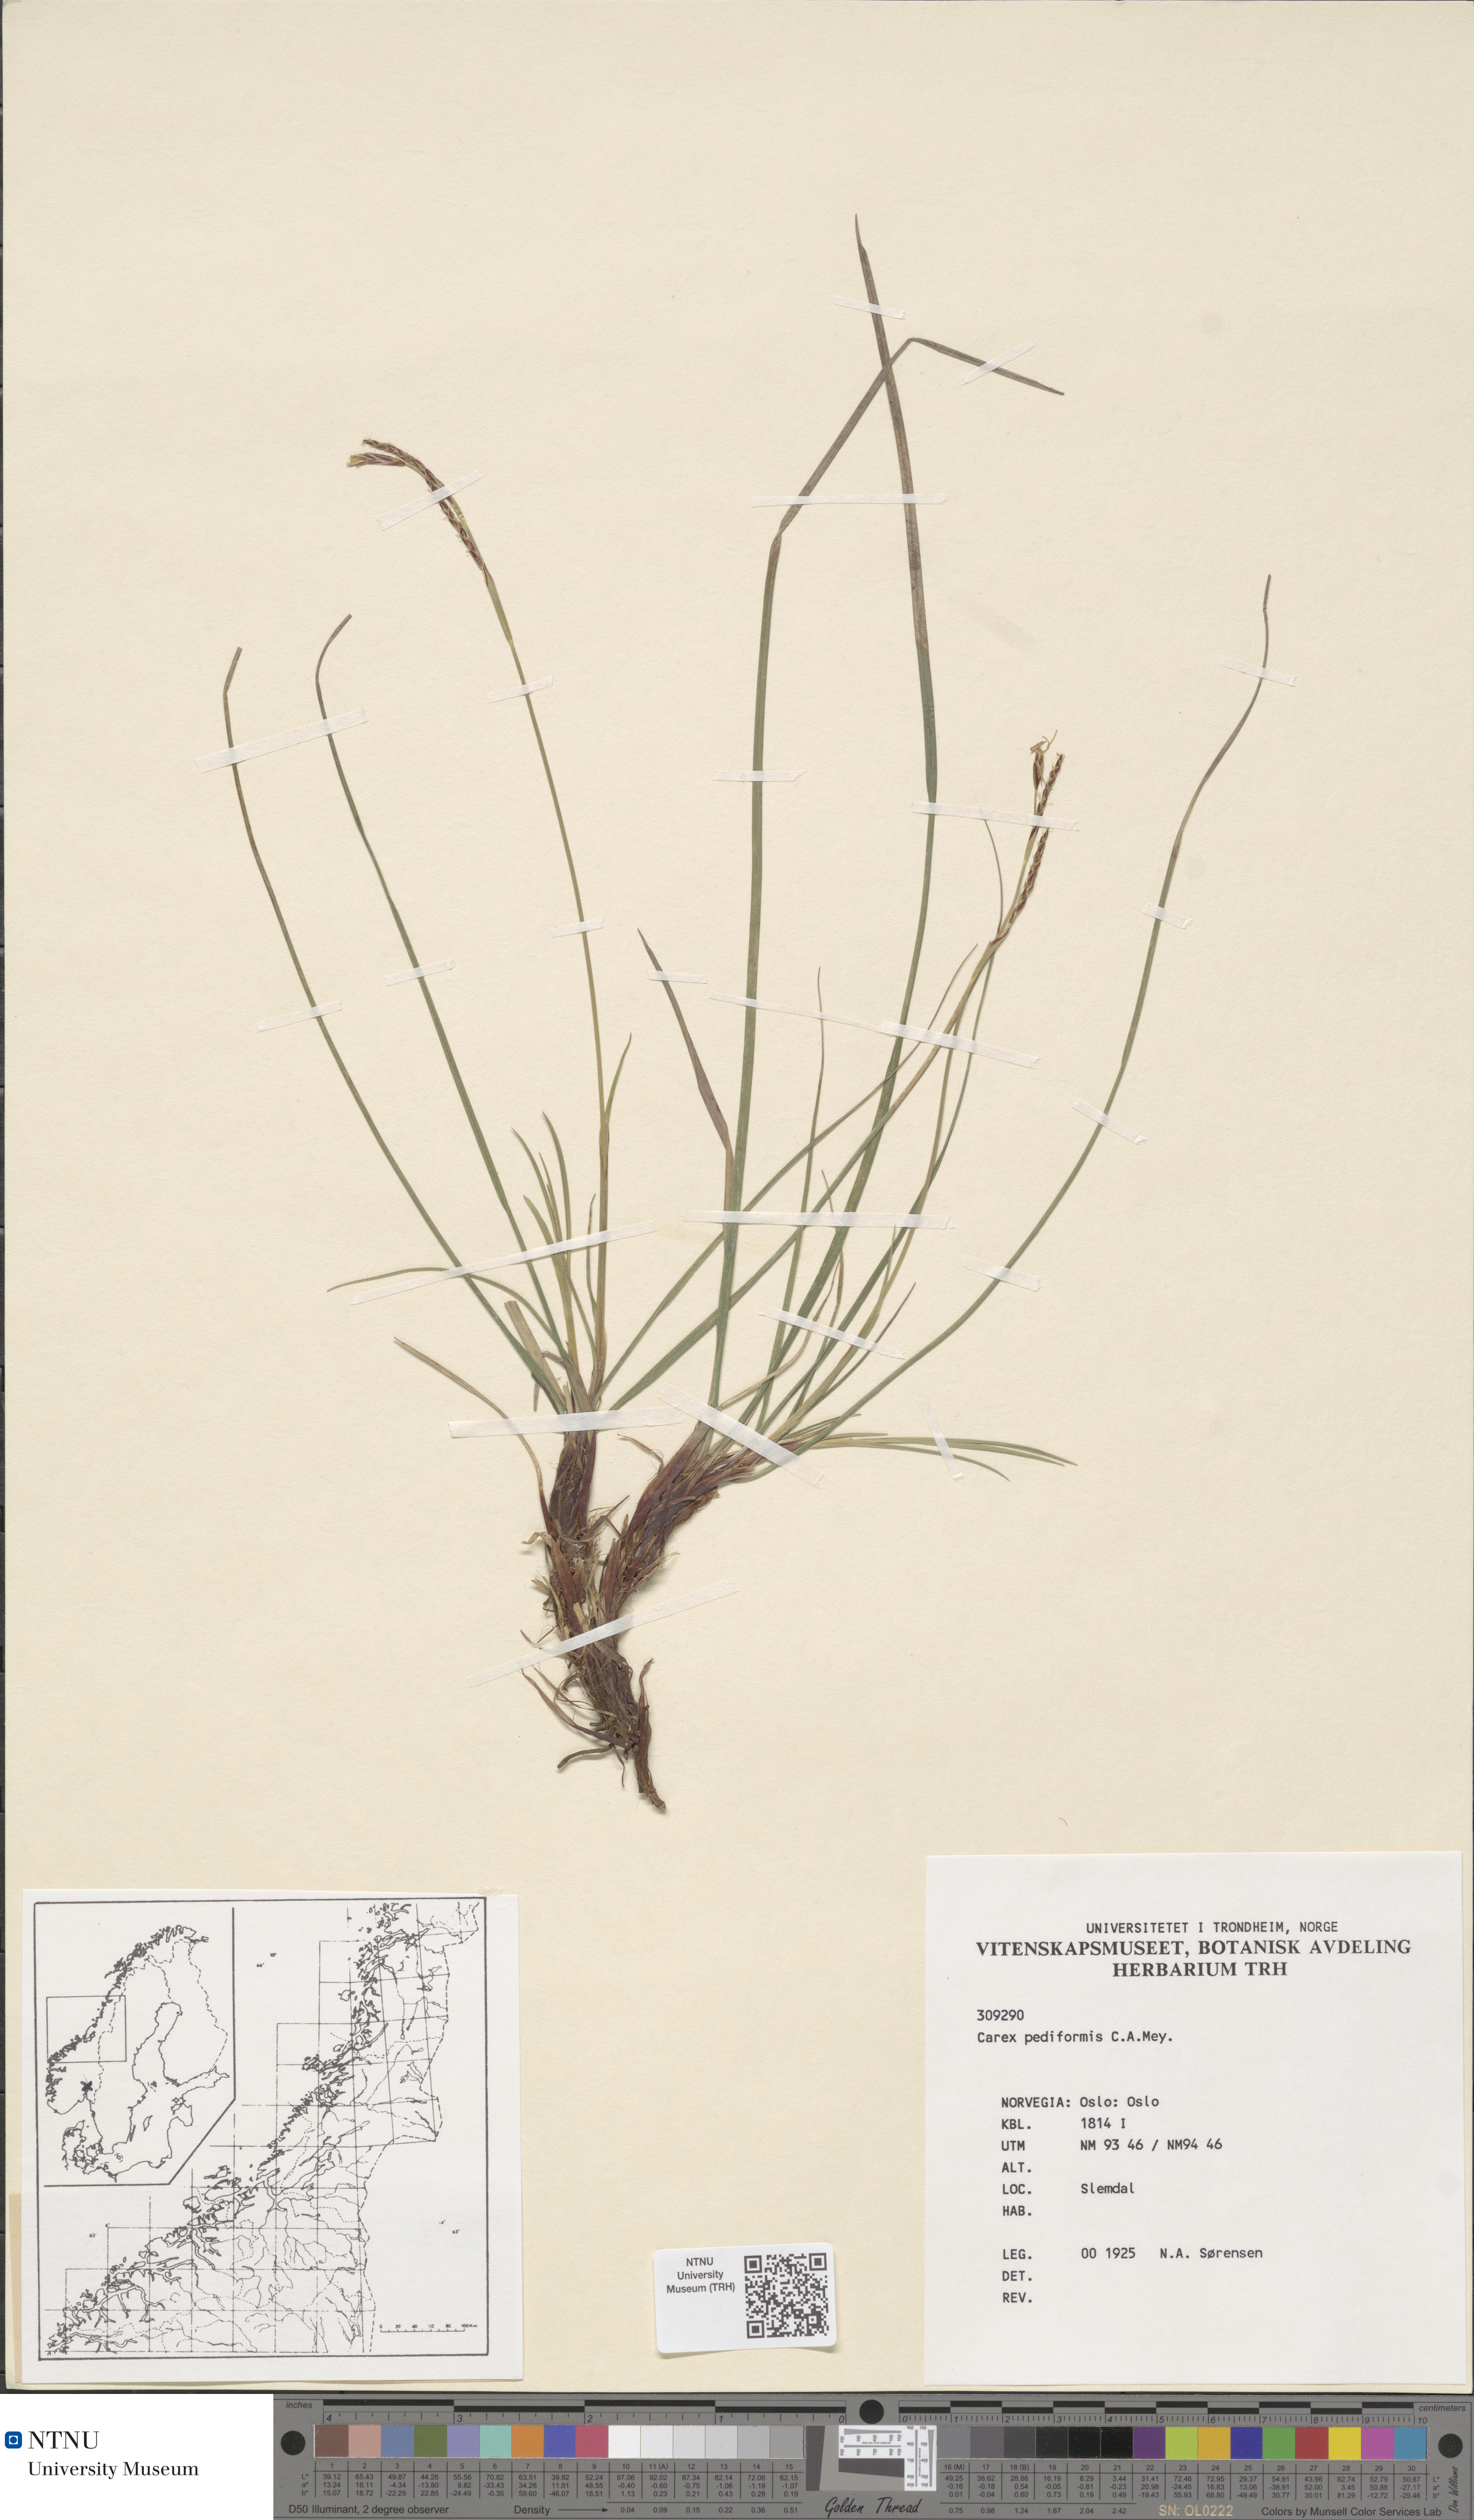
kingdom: Plantae
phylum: Tracheophyta
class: Liliopsida
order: Poales
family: Cyperaceae
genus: Carex
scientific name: Carex rhizina
